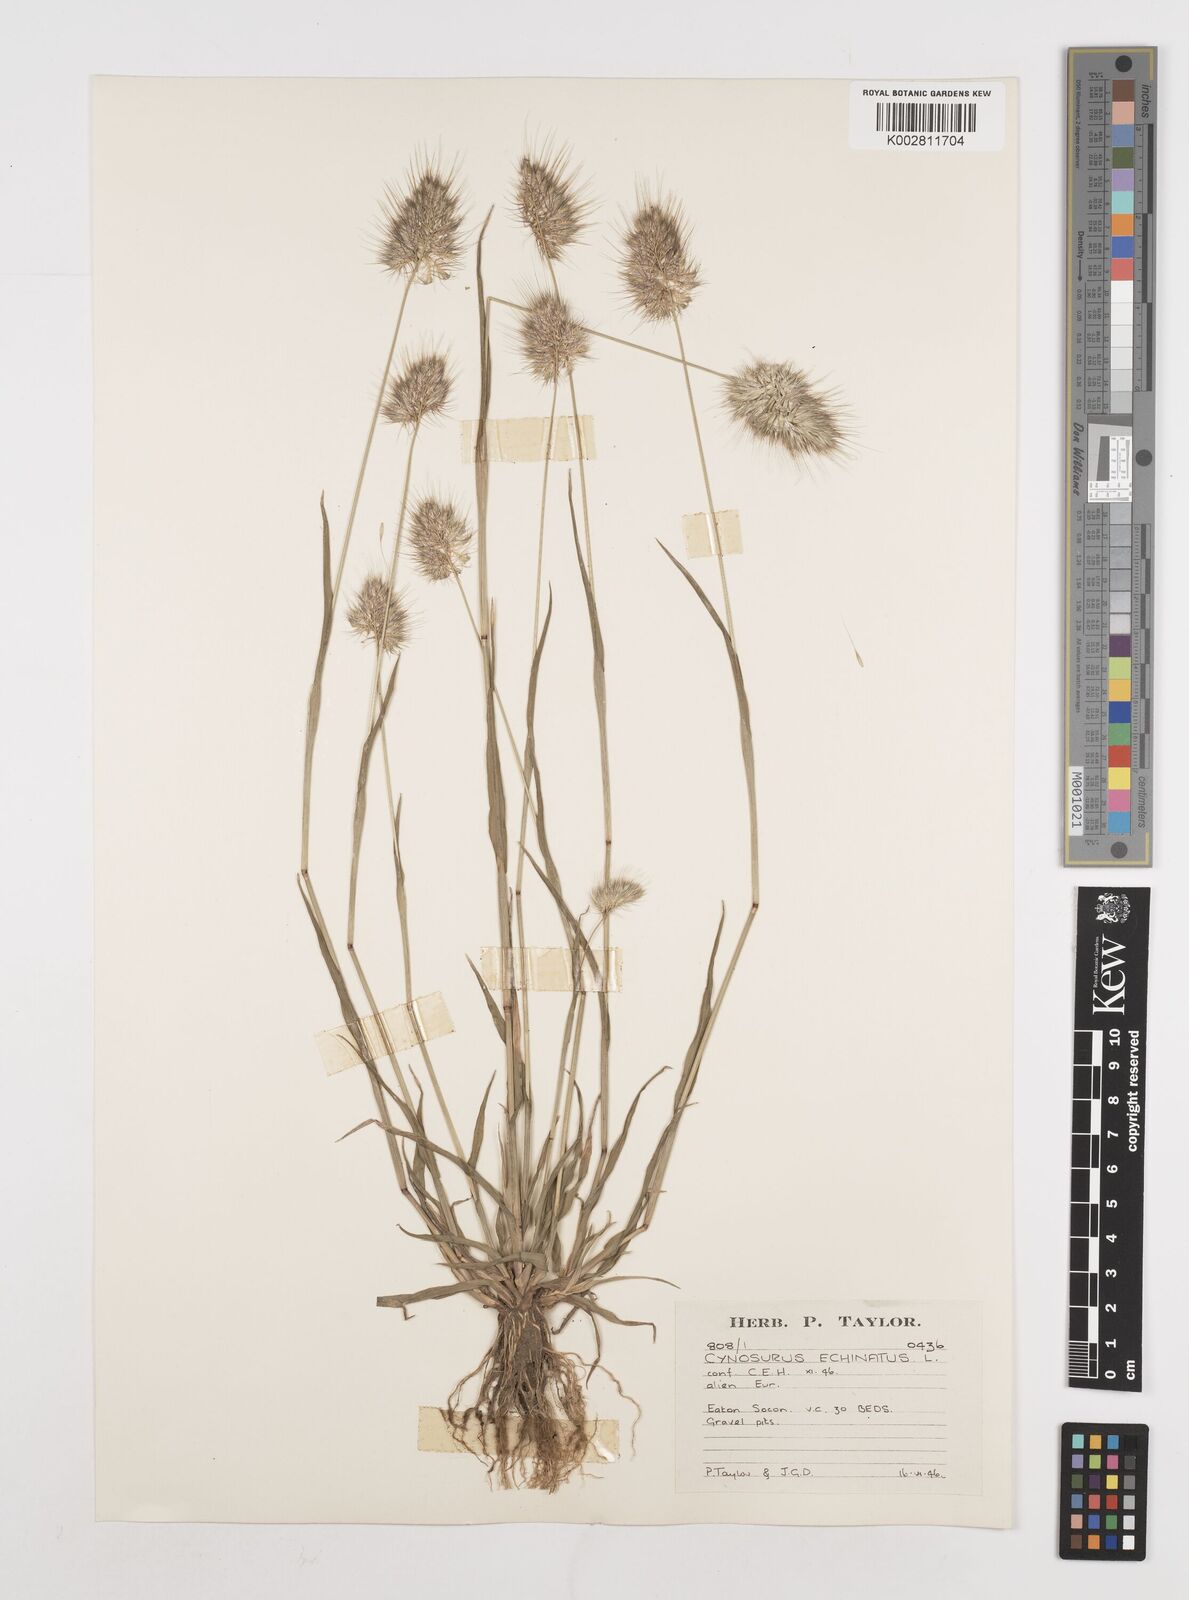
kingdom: Plantae
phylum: Tracheophyta
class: Liliopsida
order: Poales
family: Poaceae
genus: Cynosurus
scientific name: Cynosurus echinatus
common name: Rough dog's-tail
